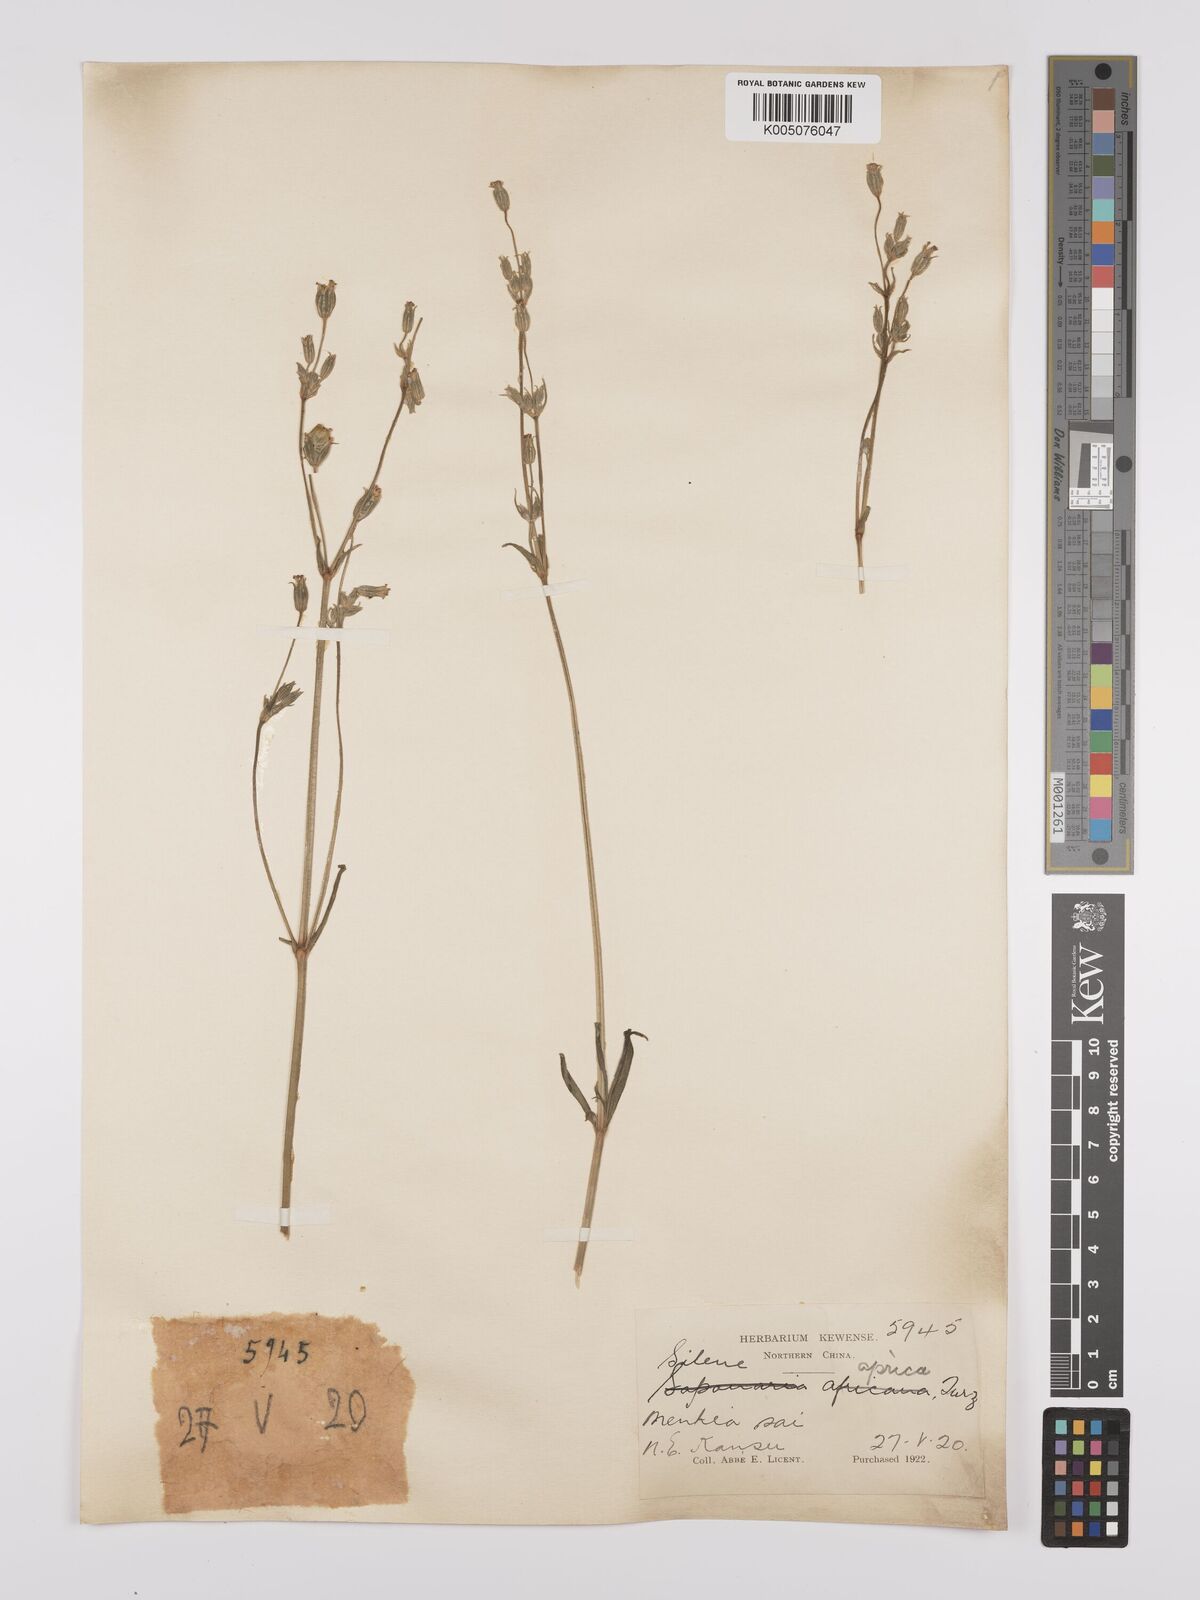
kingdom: Plantae
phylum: Tracheophyta
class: Magnoliopsida
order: Caryophyllales
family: Caryophyllaceae
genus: Silene
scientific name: Silene aprica
